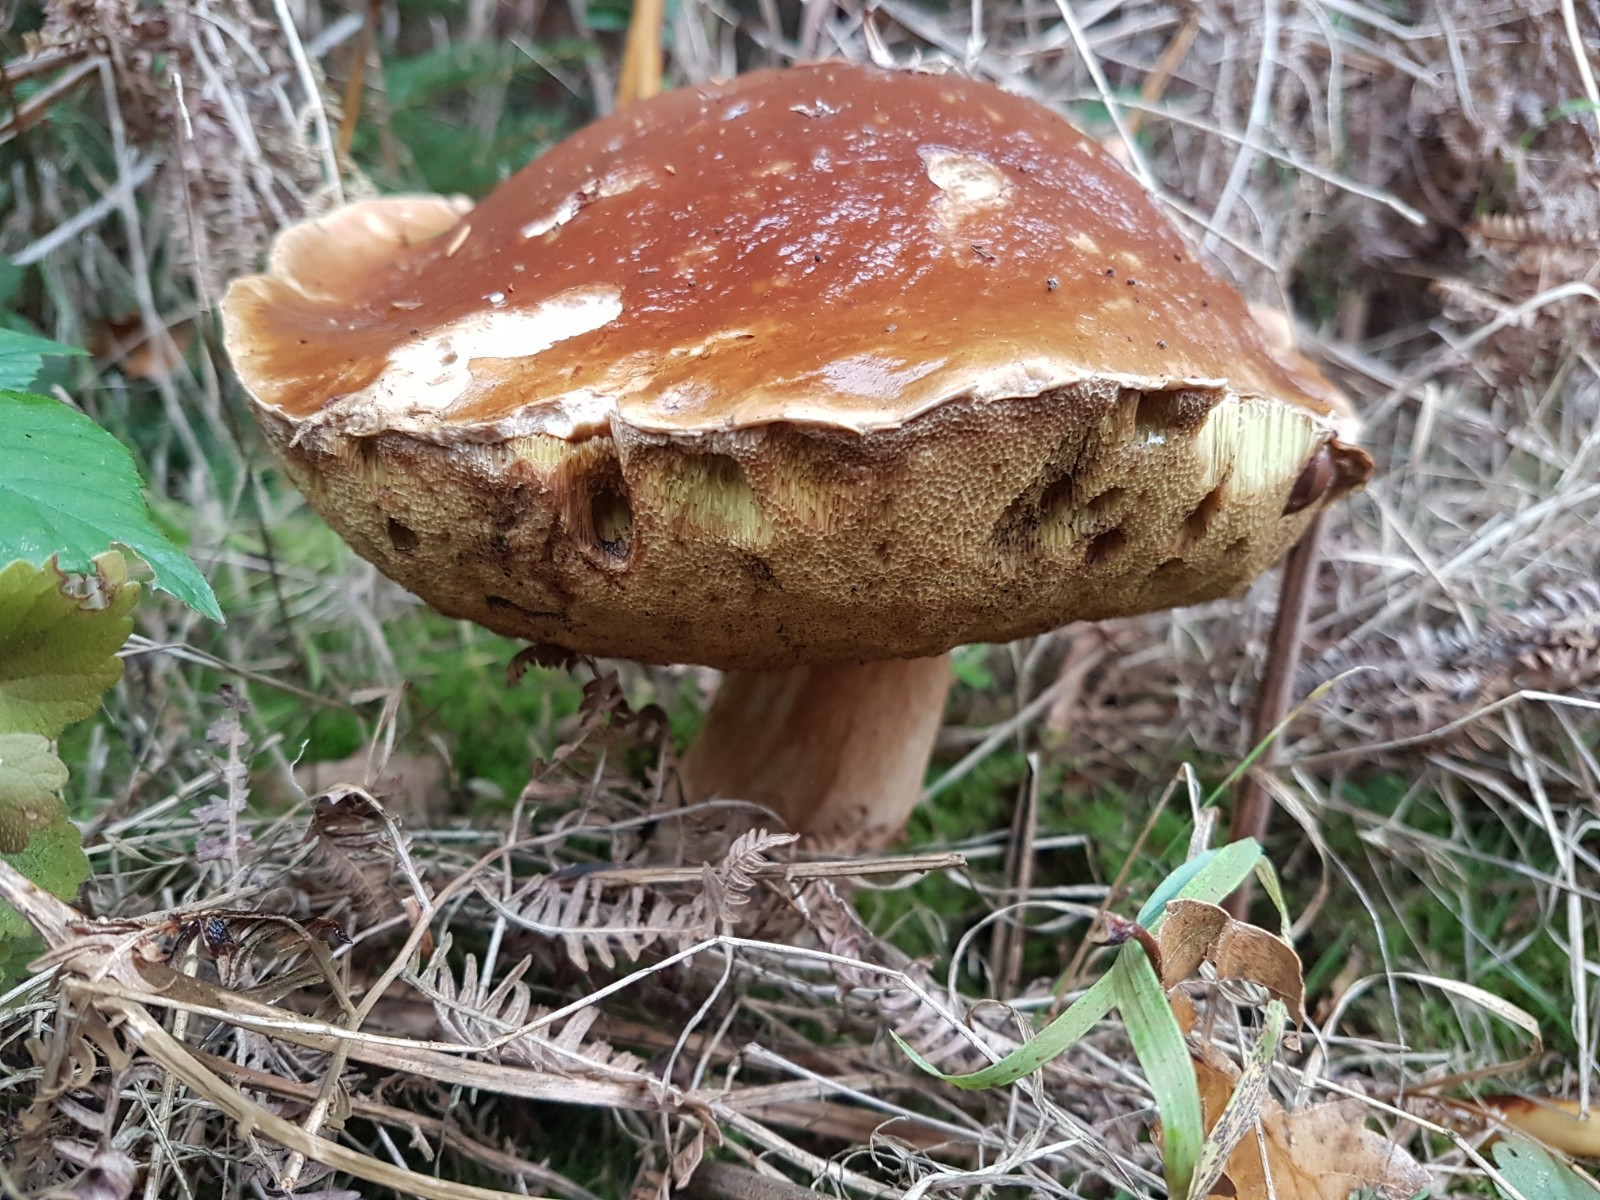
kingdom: Fungi
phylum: Basidiomycota
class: Agaricomycetes
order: Boletales
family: Boletaceae
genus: Boletus
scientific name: Boletus edulis
